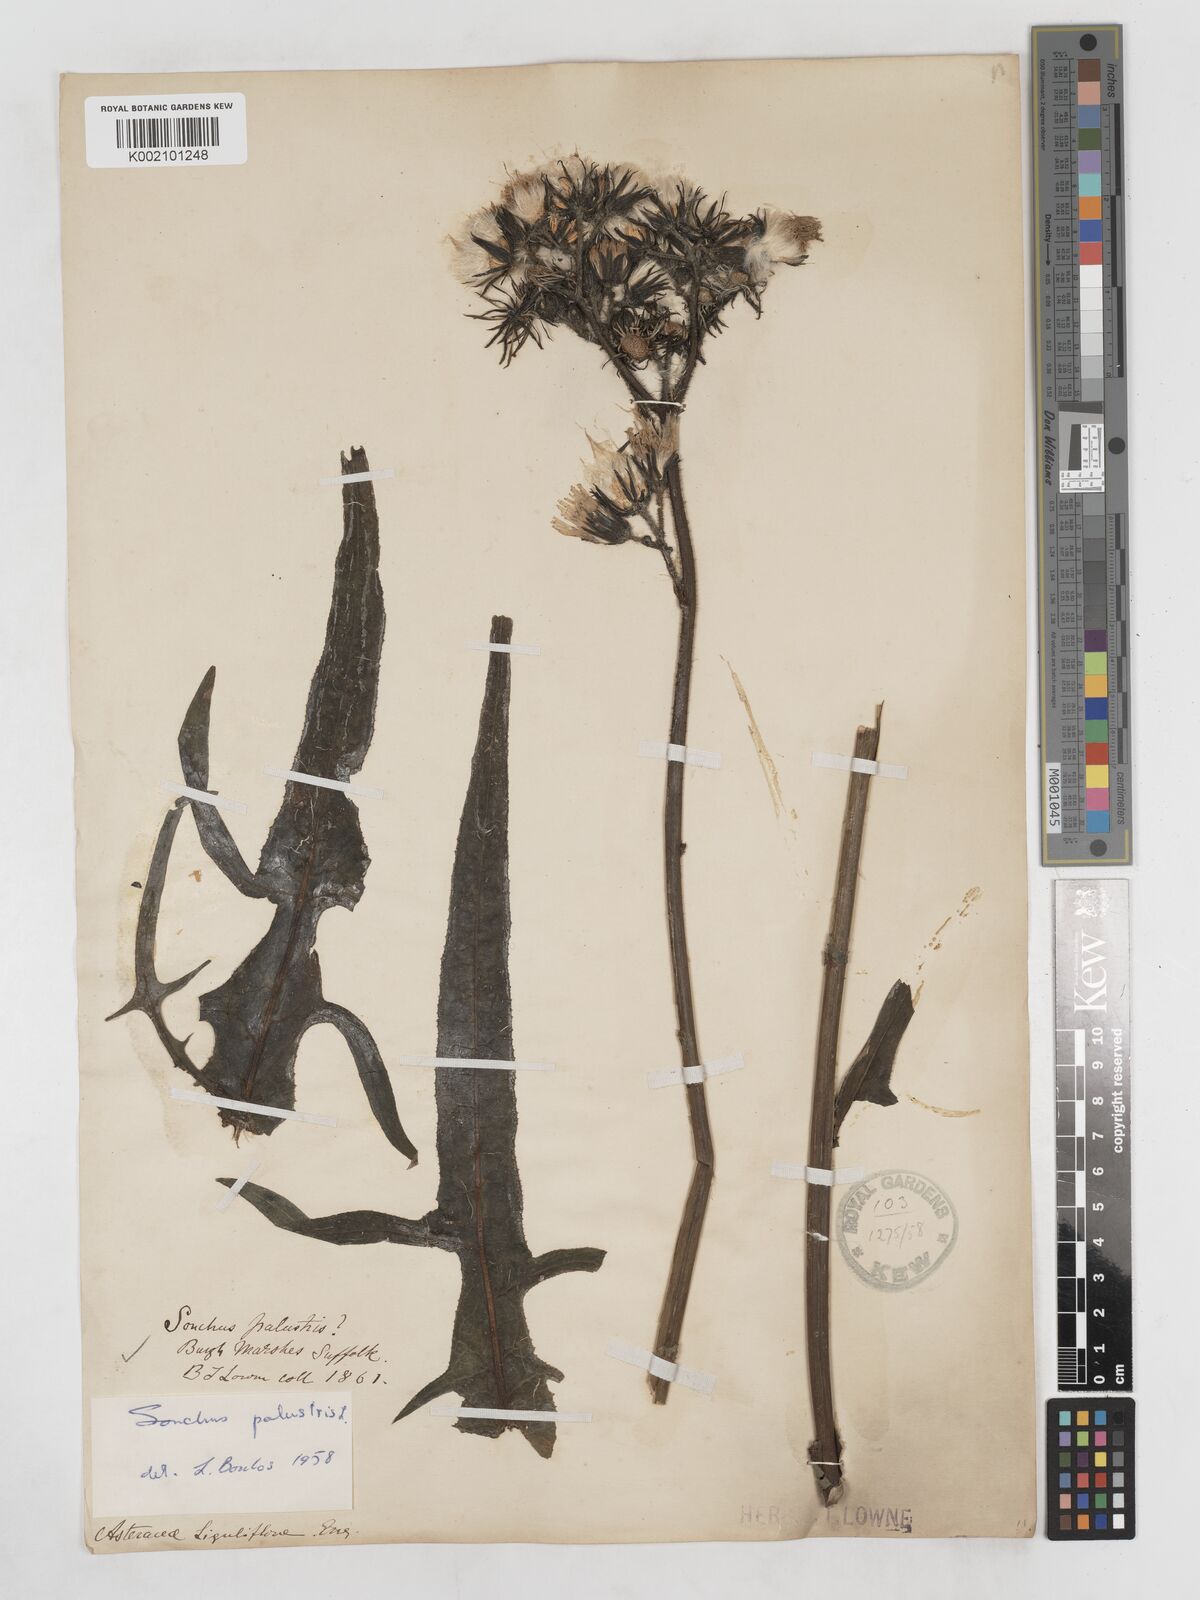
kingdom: Plantae
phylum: Tracheophyta
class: Magnoliopsida
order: Asterales
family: Asteraceae
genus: Sonchus
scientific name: Sonchus palustris
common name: Marsh sow-thistle
